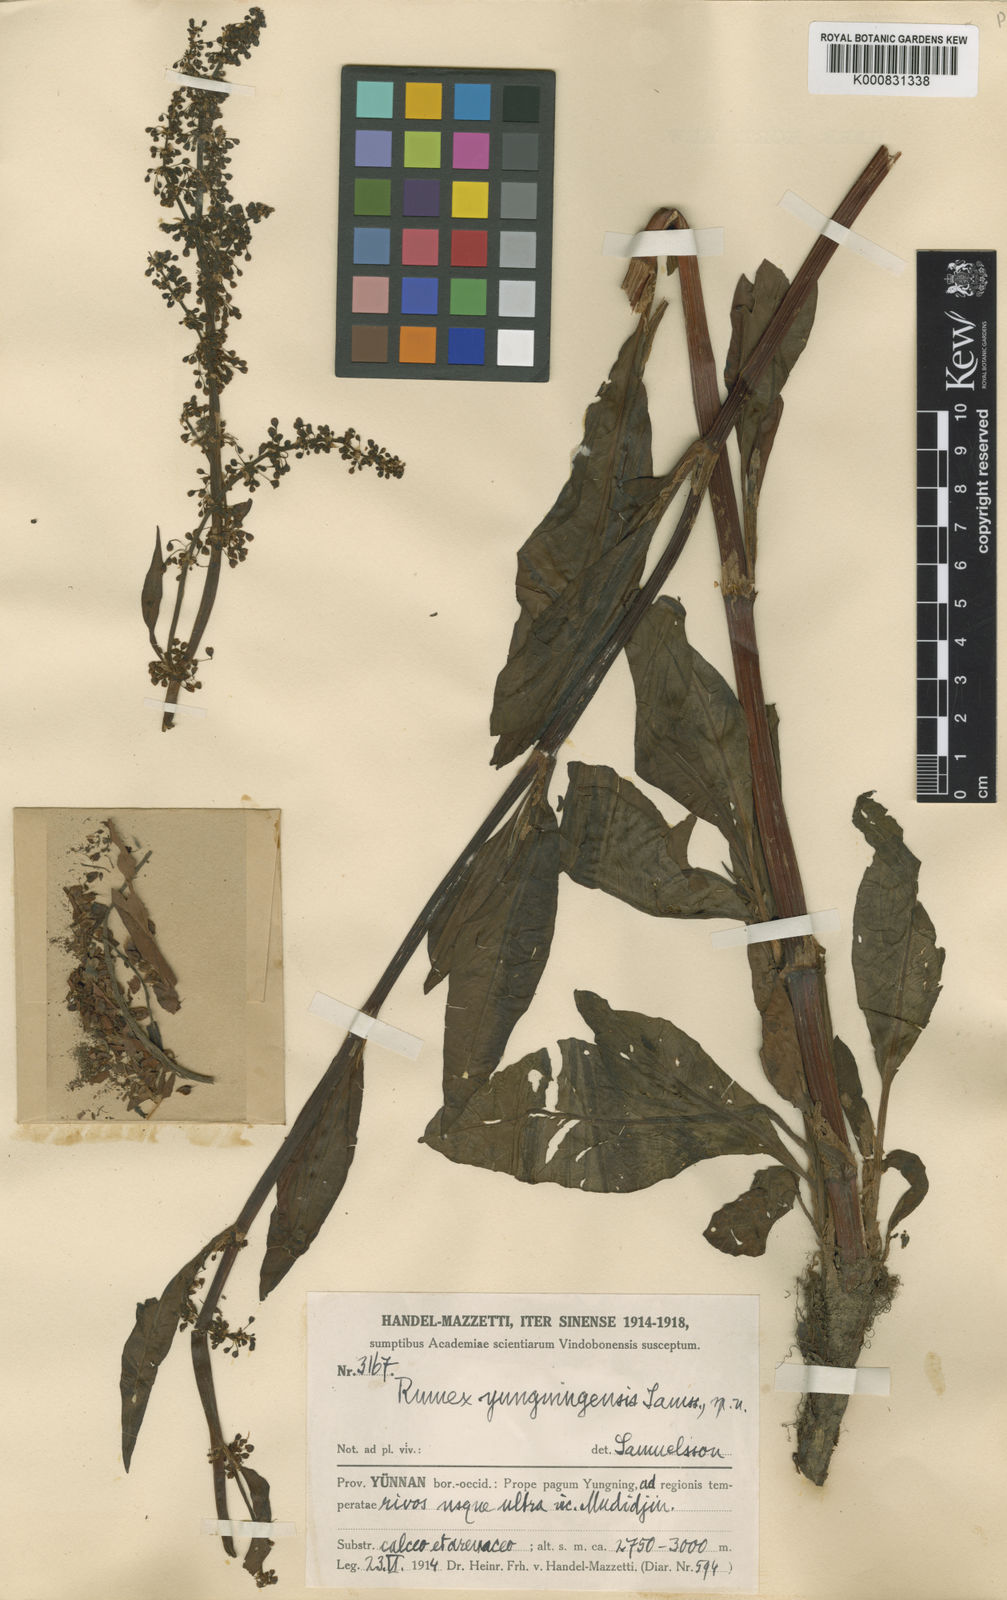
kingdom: Plantae
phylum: Tracheophyta
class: Magnoliopsida
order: Caryophyllales
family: Polygonaceae
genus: Rumex
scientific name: Rumex microcarpus
